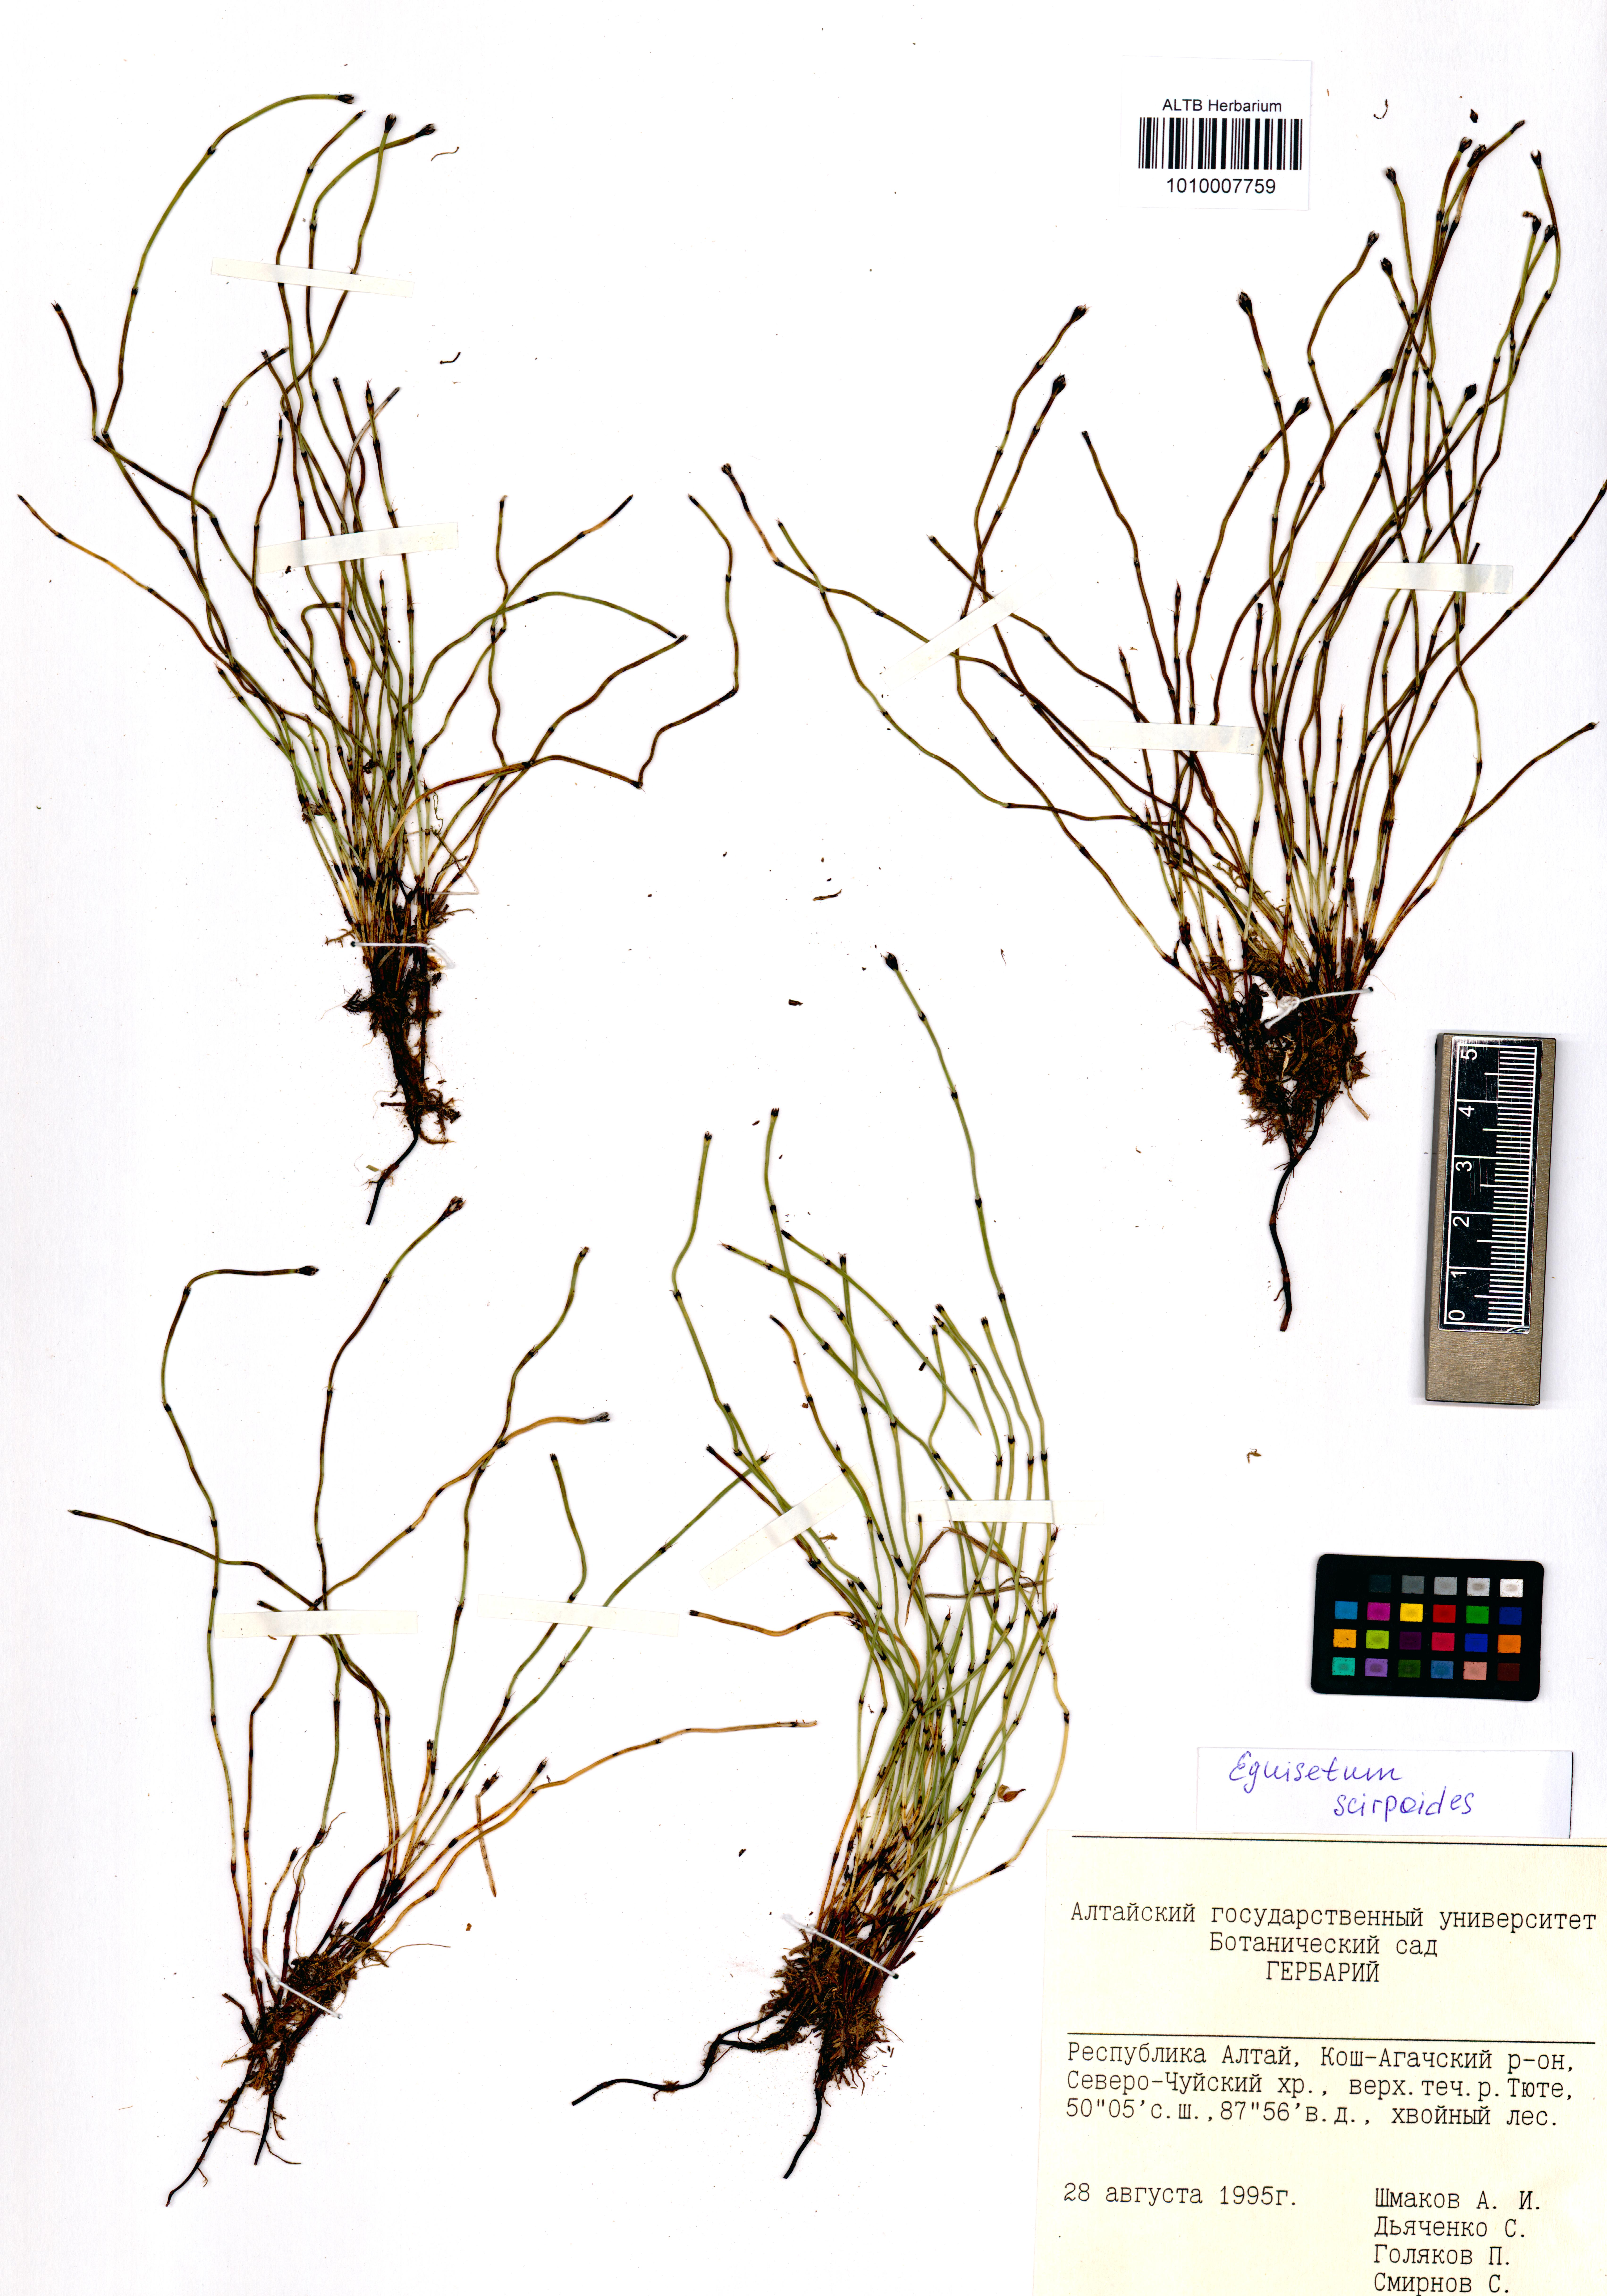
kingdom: Plantae
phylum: Tracheophyta
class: Polypodiopsida
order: Equisetales
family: Equisetaceae
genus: Equisetum
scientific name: Equisetum scirpoides
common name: Delicate horsetail
